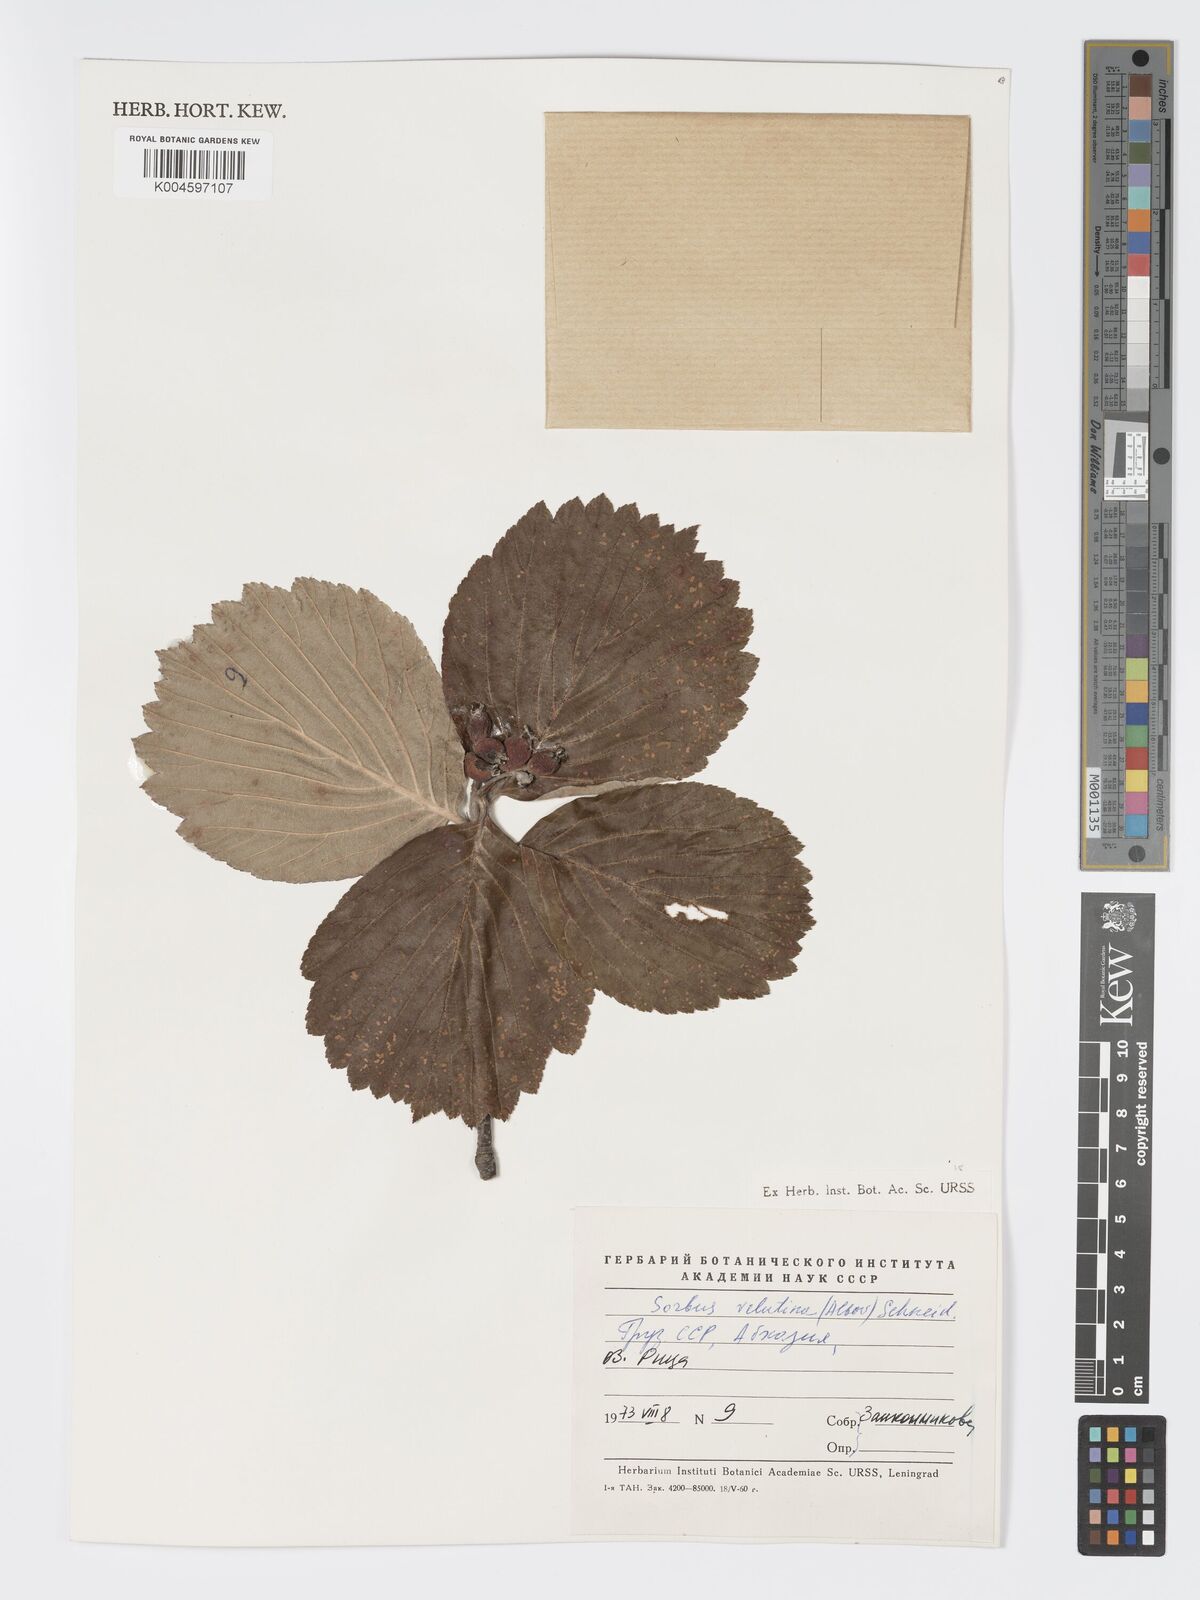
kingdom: Plantae
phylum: Tracheophyta
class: Magnoliopsida
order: Rosales
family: Rosaceae
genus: Sorbus
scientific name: Sorbus subfusca
